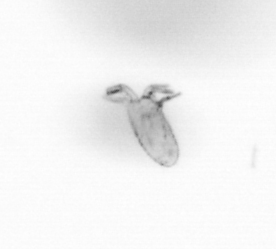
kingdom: Animalia
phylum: Arthropoda
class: Maxillopoda
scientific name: Maxillopoda
